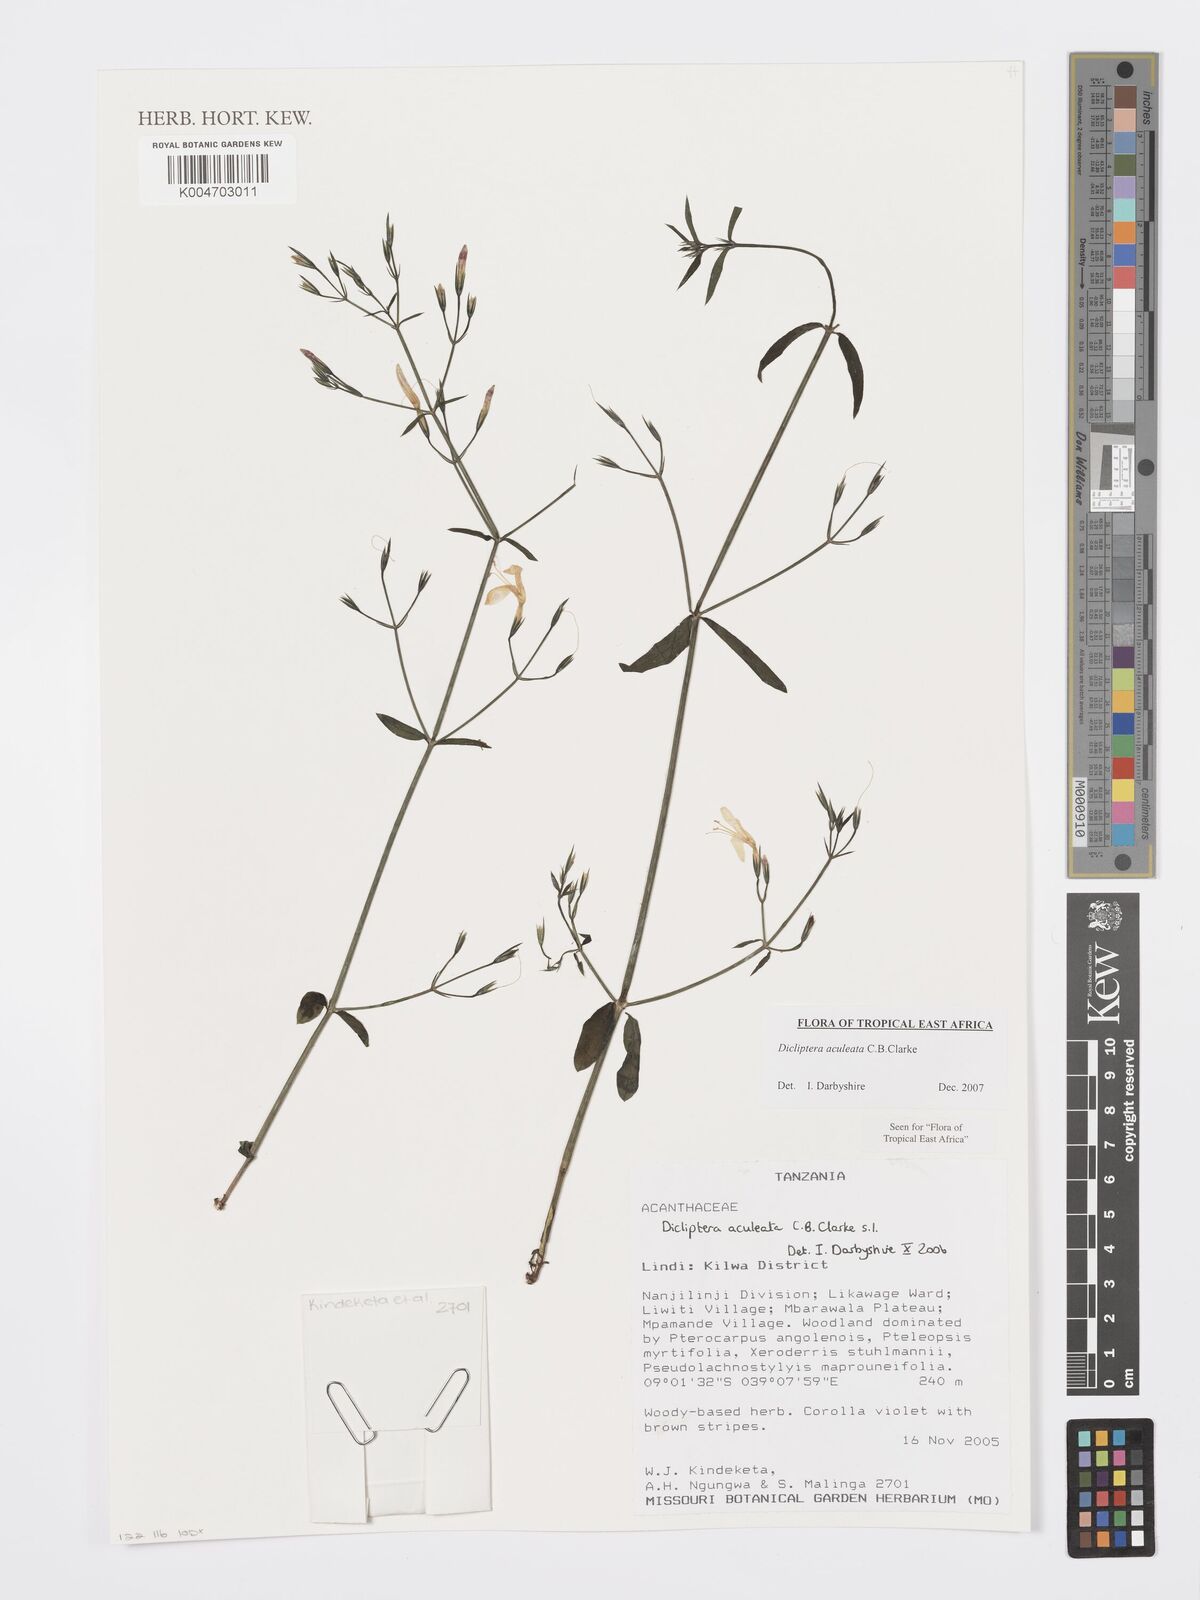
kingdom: Plantae
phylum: Tracheophyta
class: Magnoliopsida
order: Lamiales
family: Acanthaceae
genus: Dicliptera
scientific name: Dicliptera hensii
